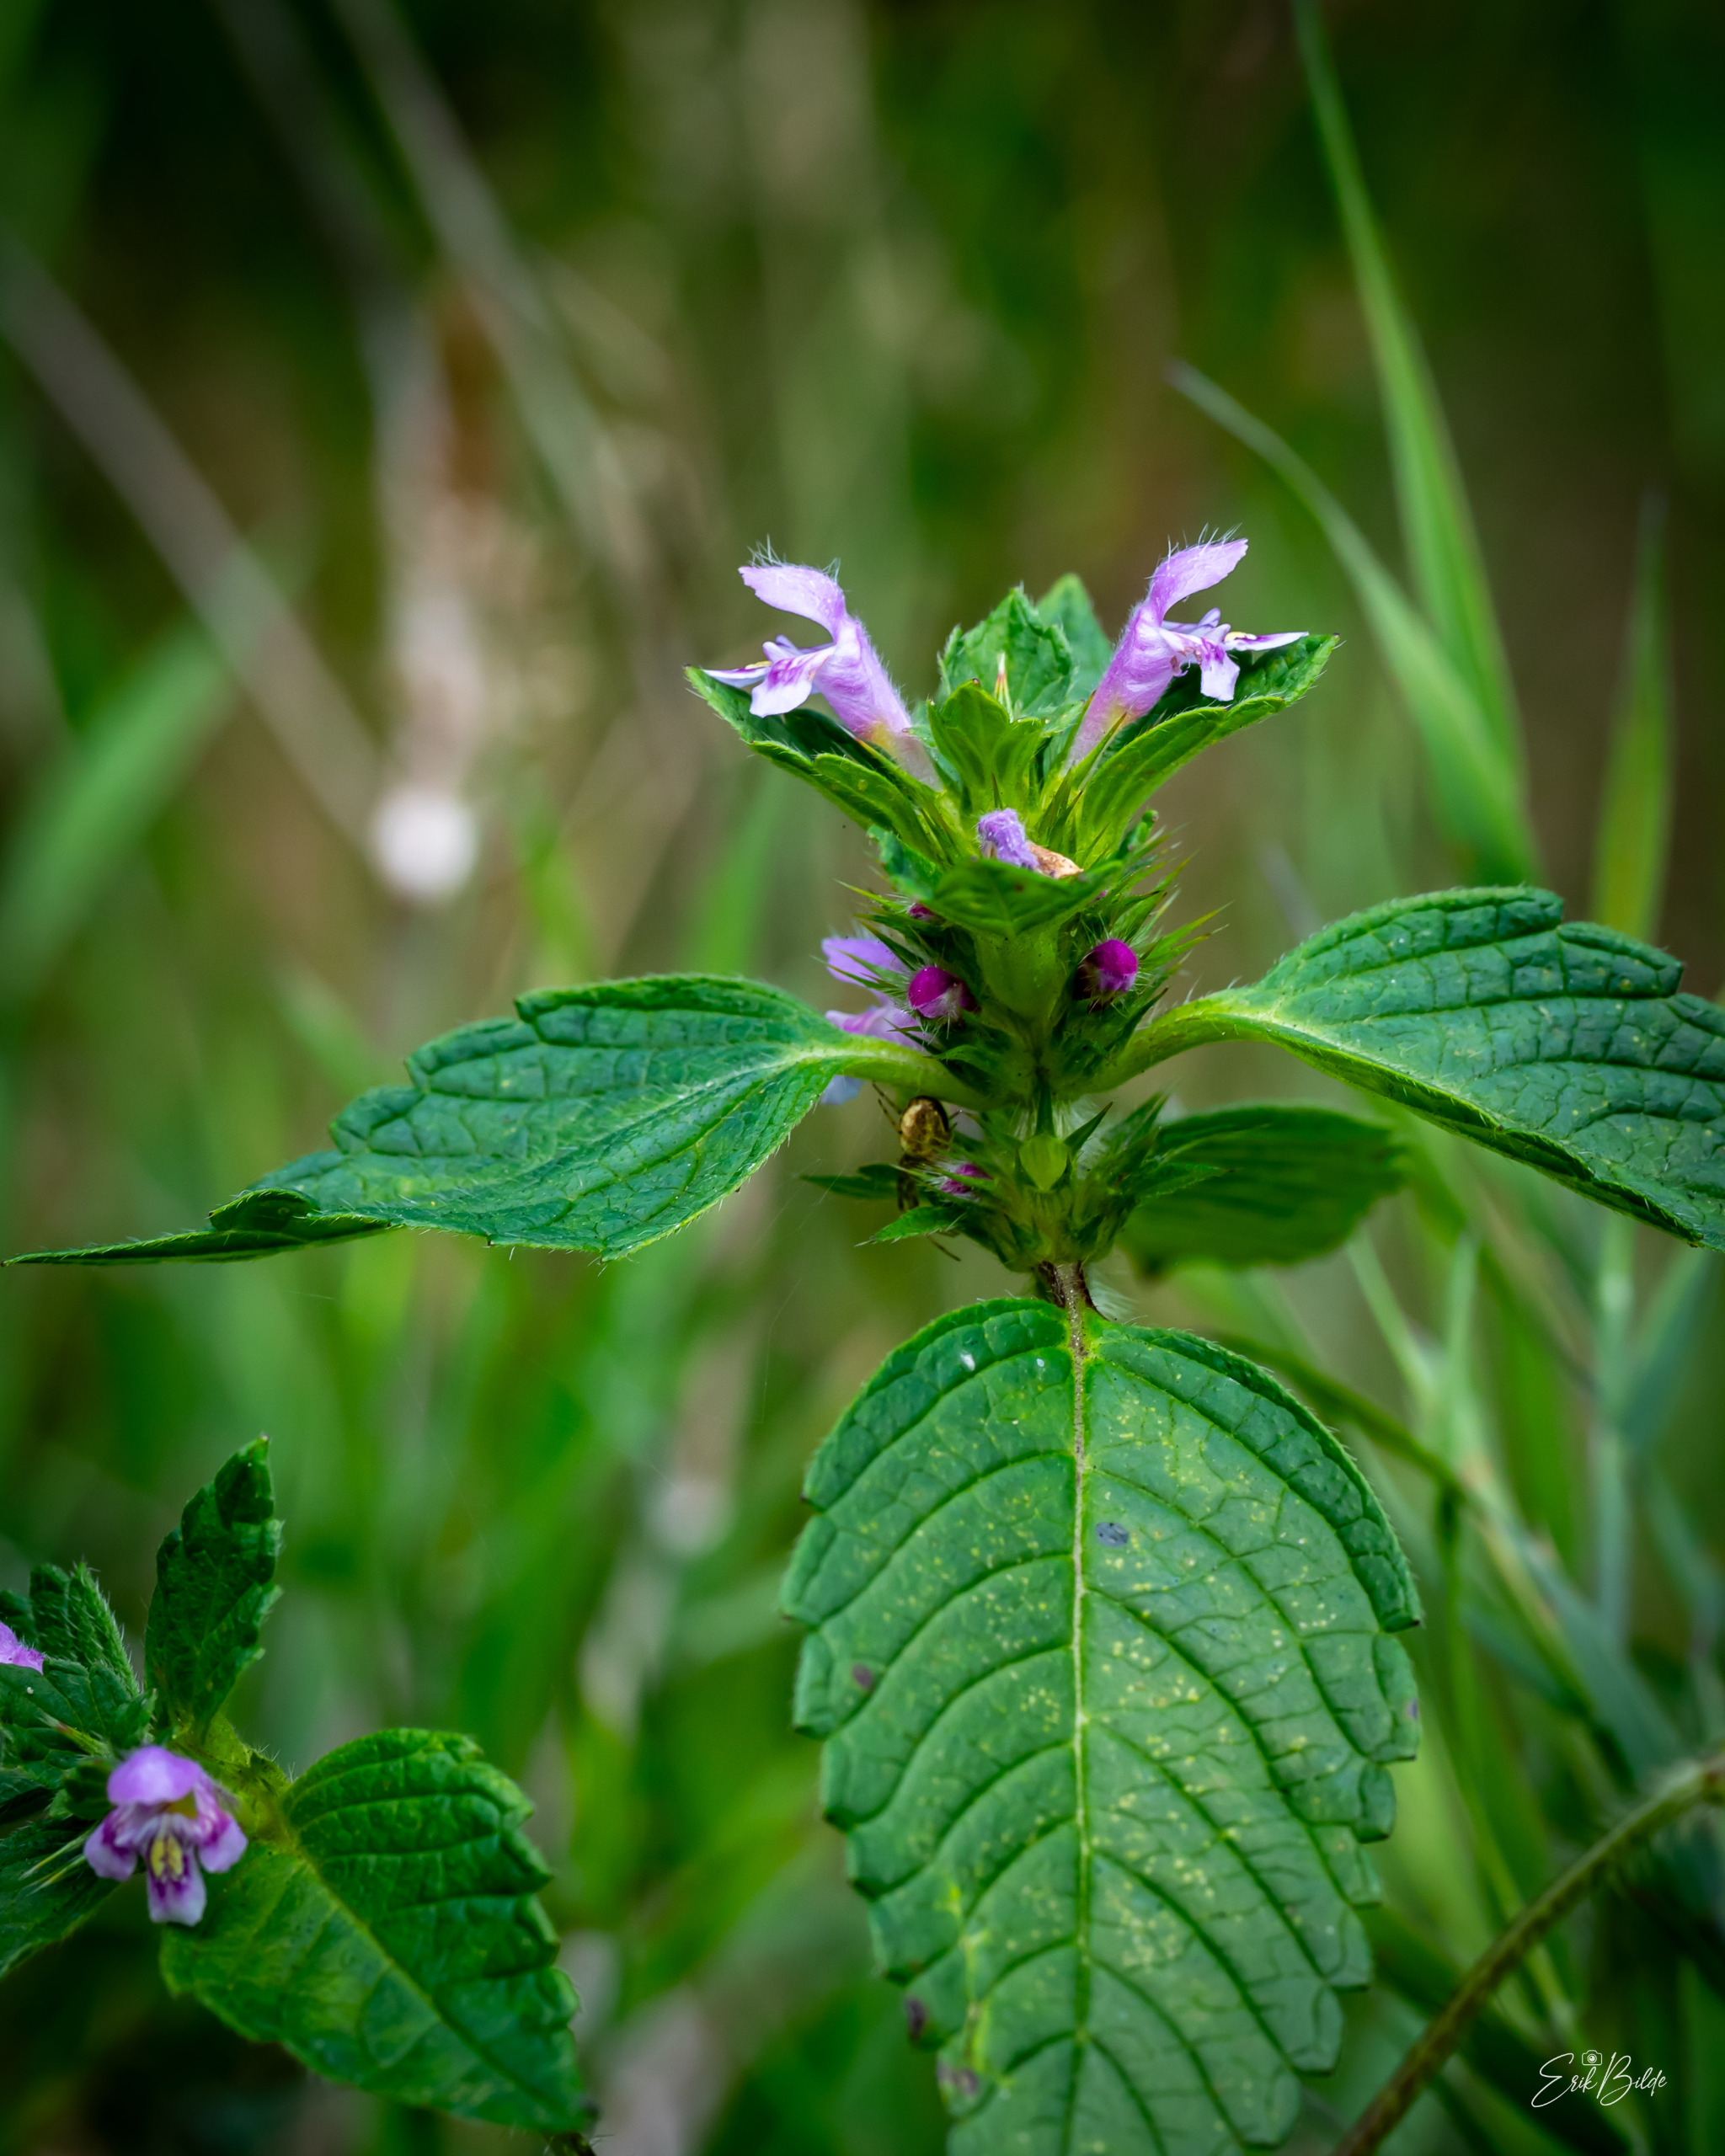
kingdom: Plantae
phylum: Tracheophyta
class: Magnoliopsida
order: Lamiales
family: Lamiaceae
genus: Galeopsis
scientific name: Galeopsis tetrahit
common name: Almindelig hanekro
